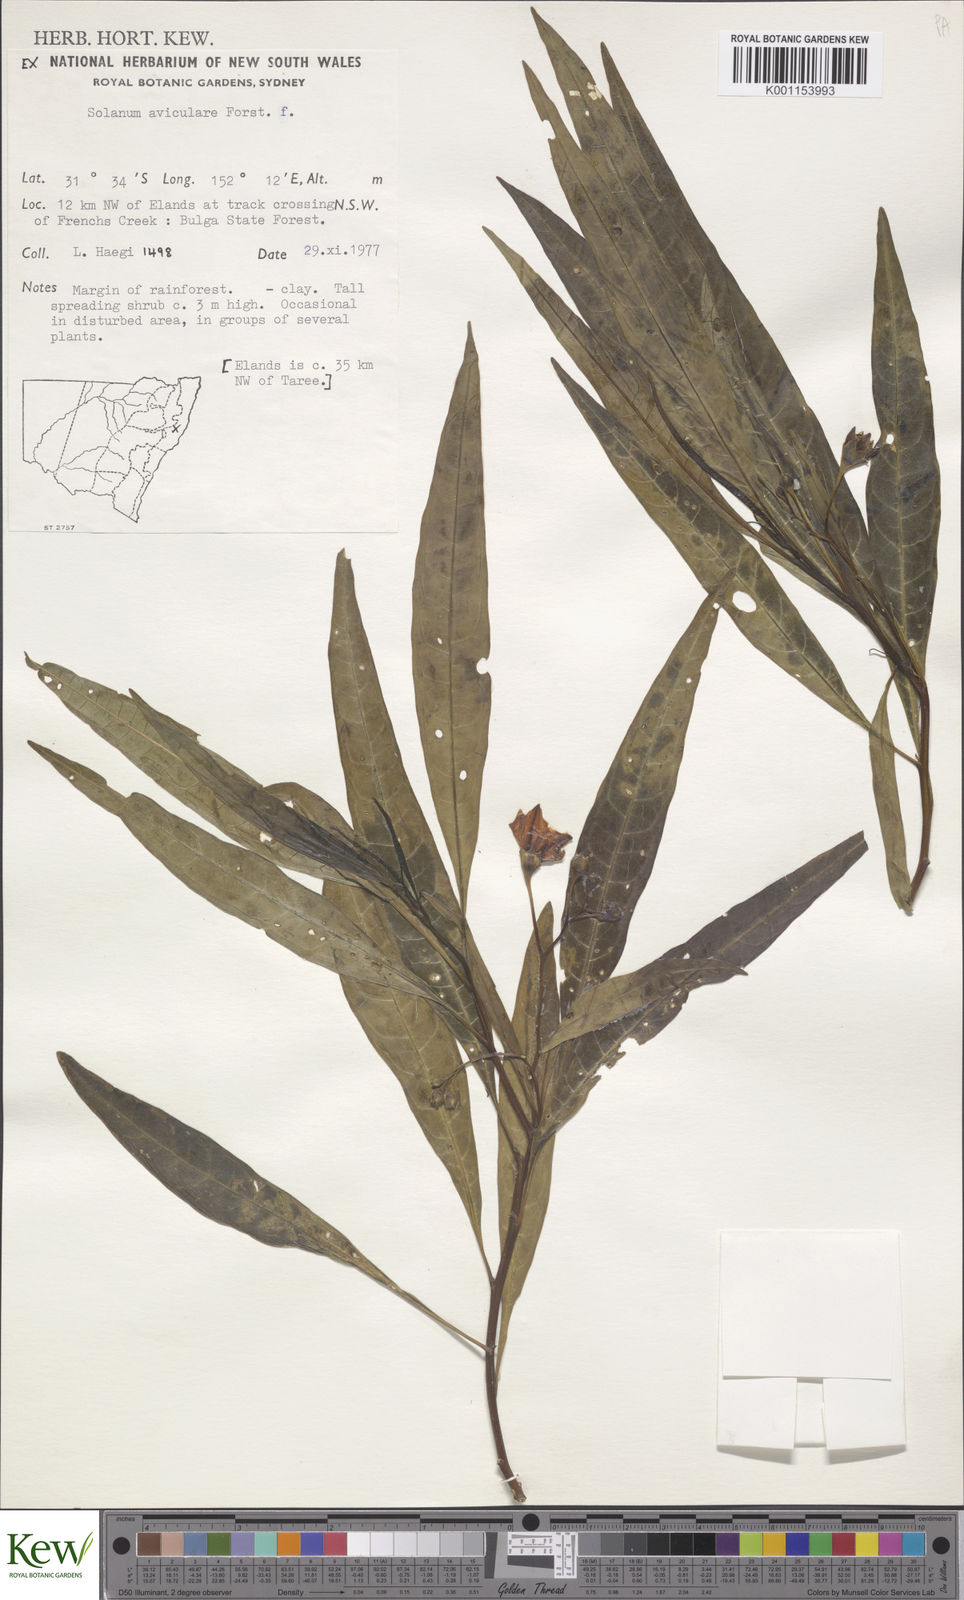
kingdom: Plantae
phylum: Tracheophyta
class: Magnoliopsida
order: Solanales
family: Solanaceae
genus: Solanum
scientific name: Solanum aviculare
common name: New zealand nightshade
